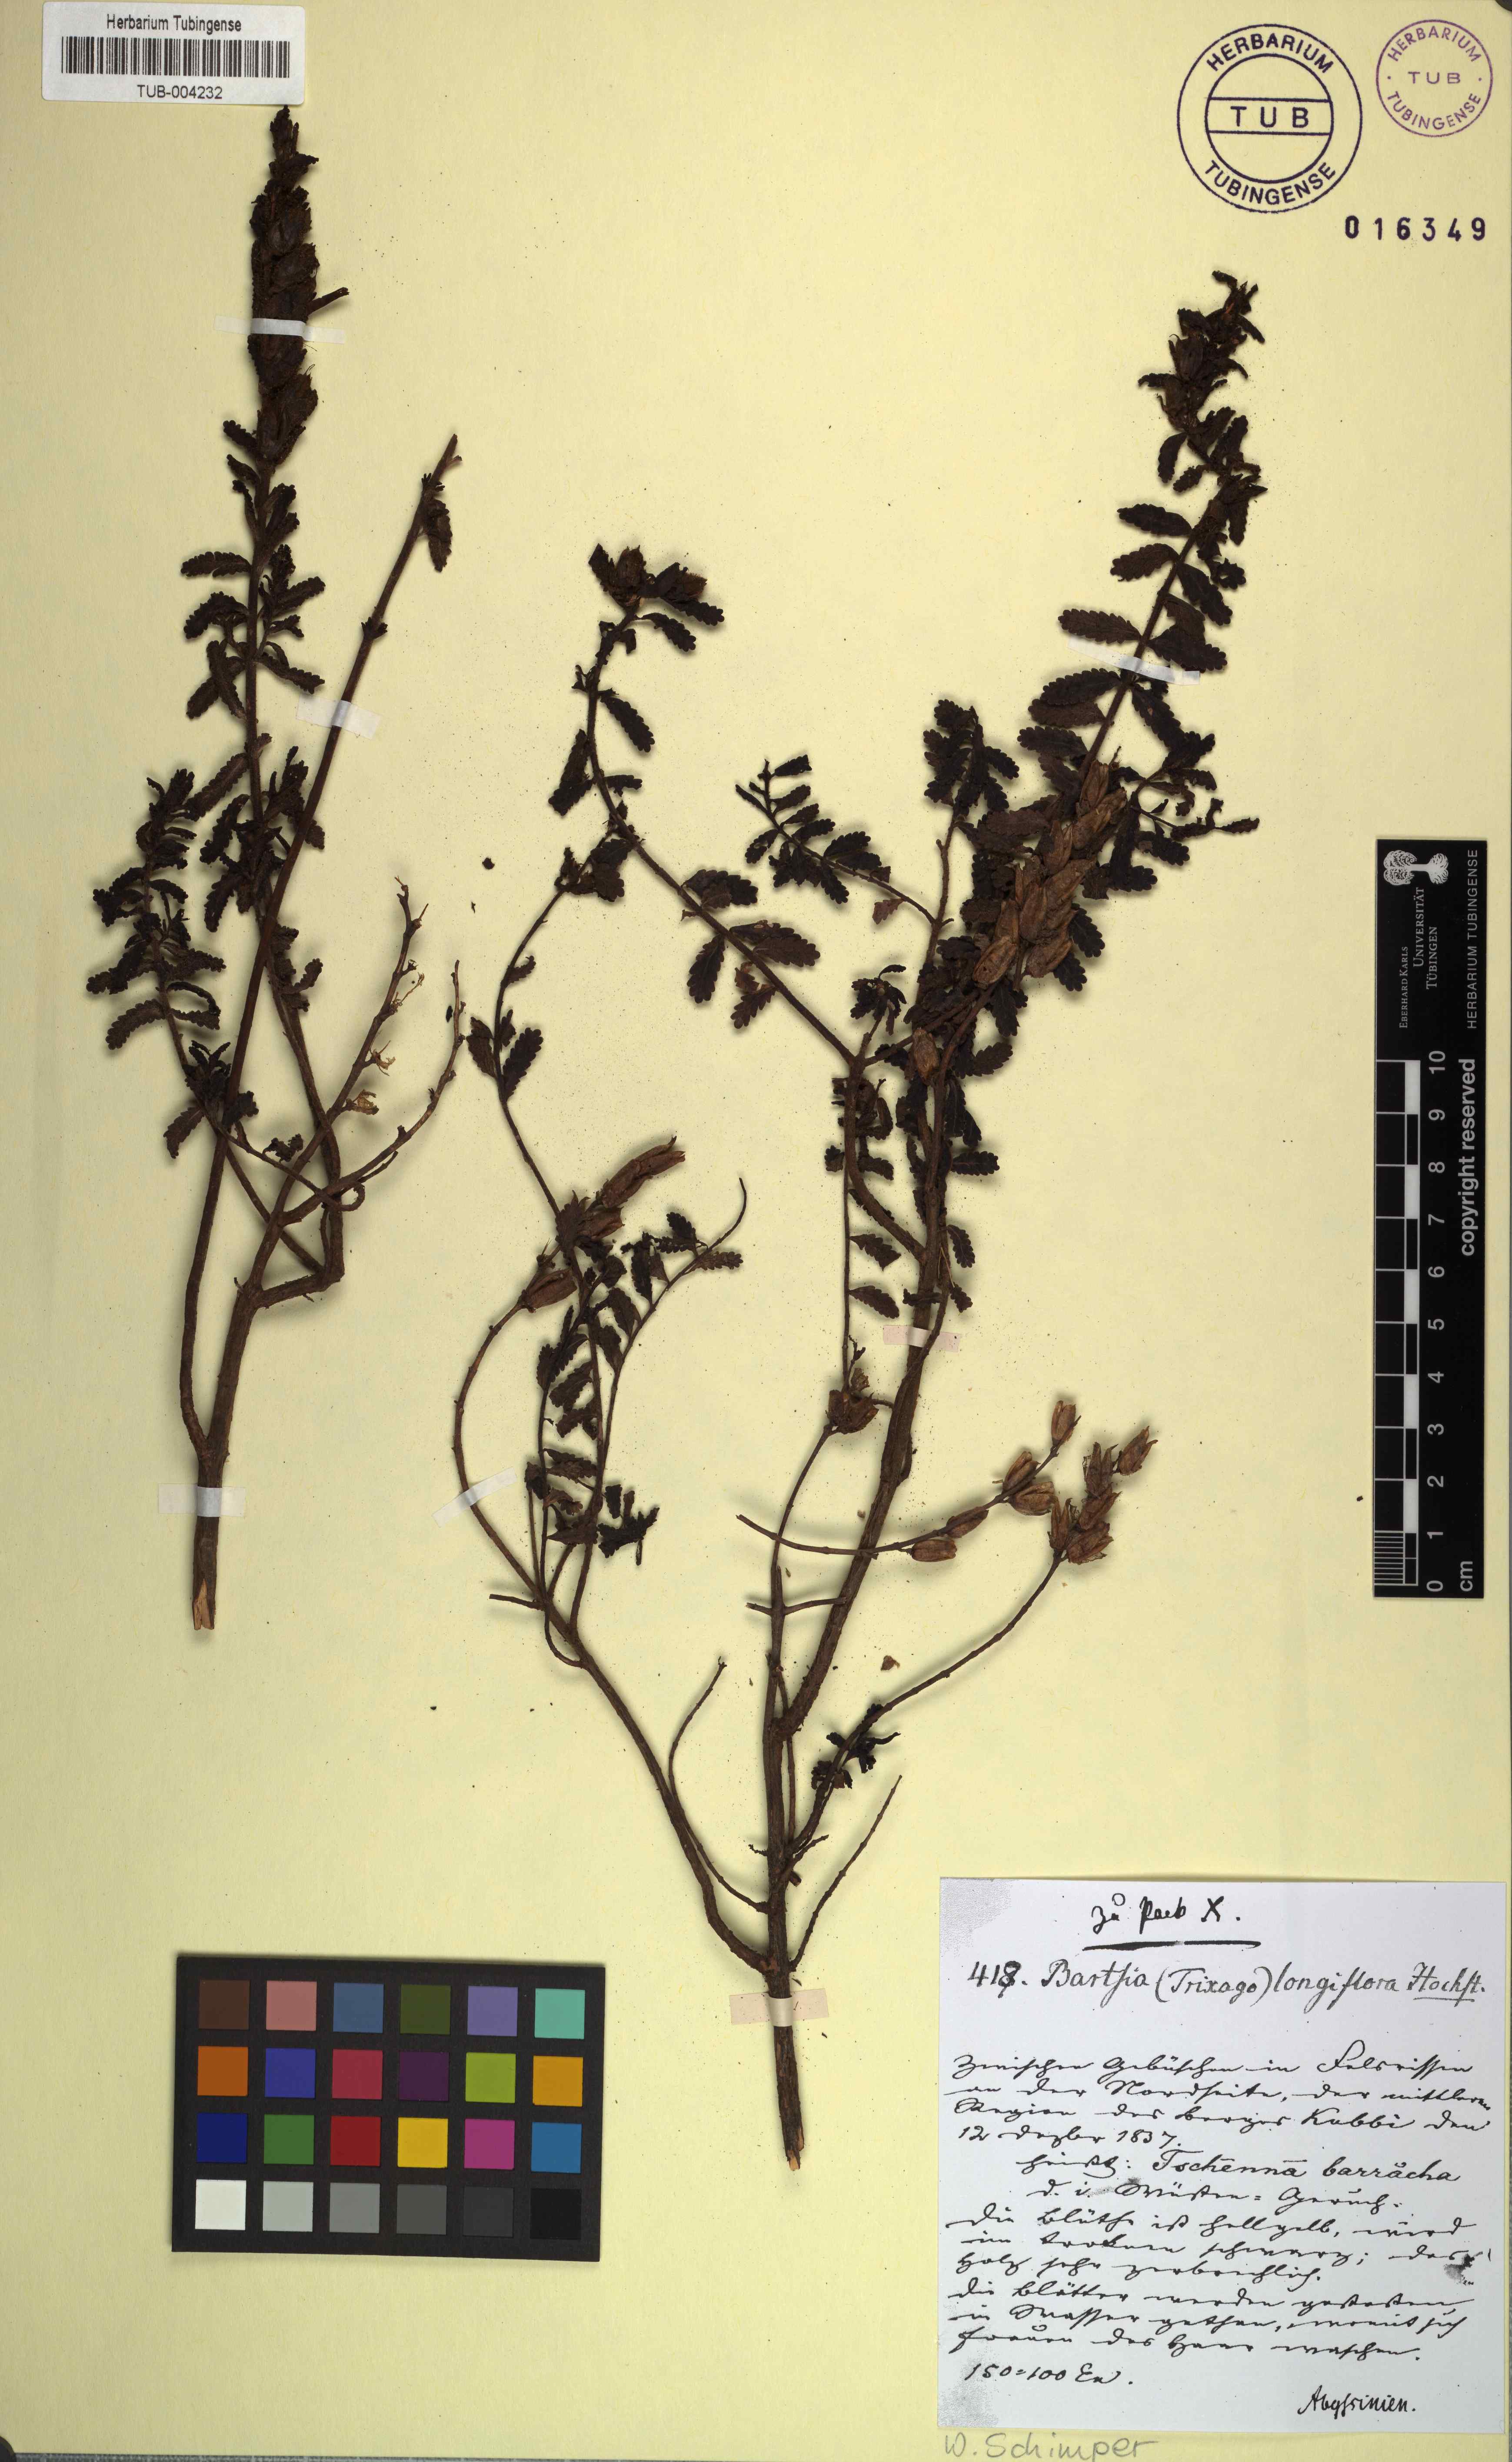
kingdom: Plantae
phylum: Tracheophyta
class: Magnoliopsida
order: Lamiales
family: Orobanchaceae
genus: Hedbergia
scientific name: Hedbergia longiflora
